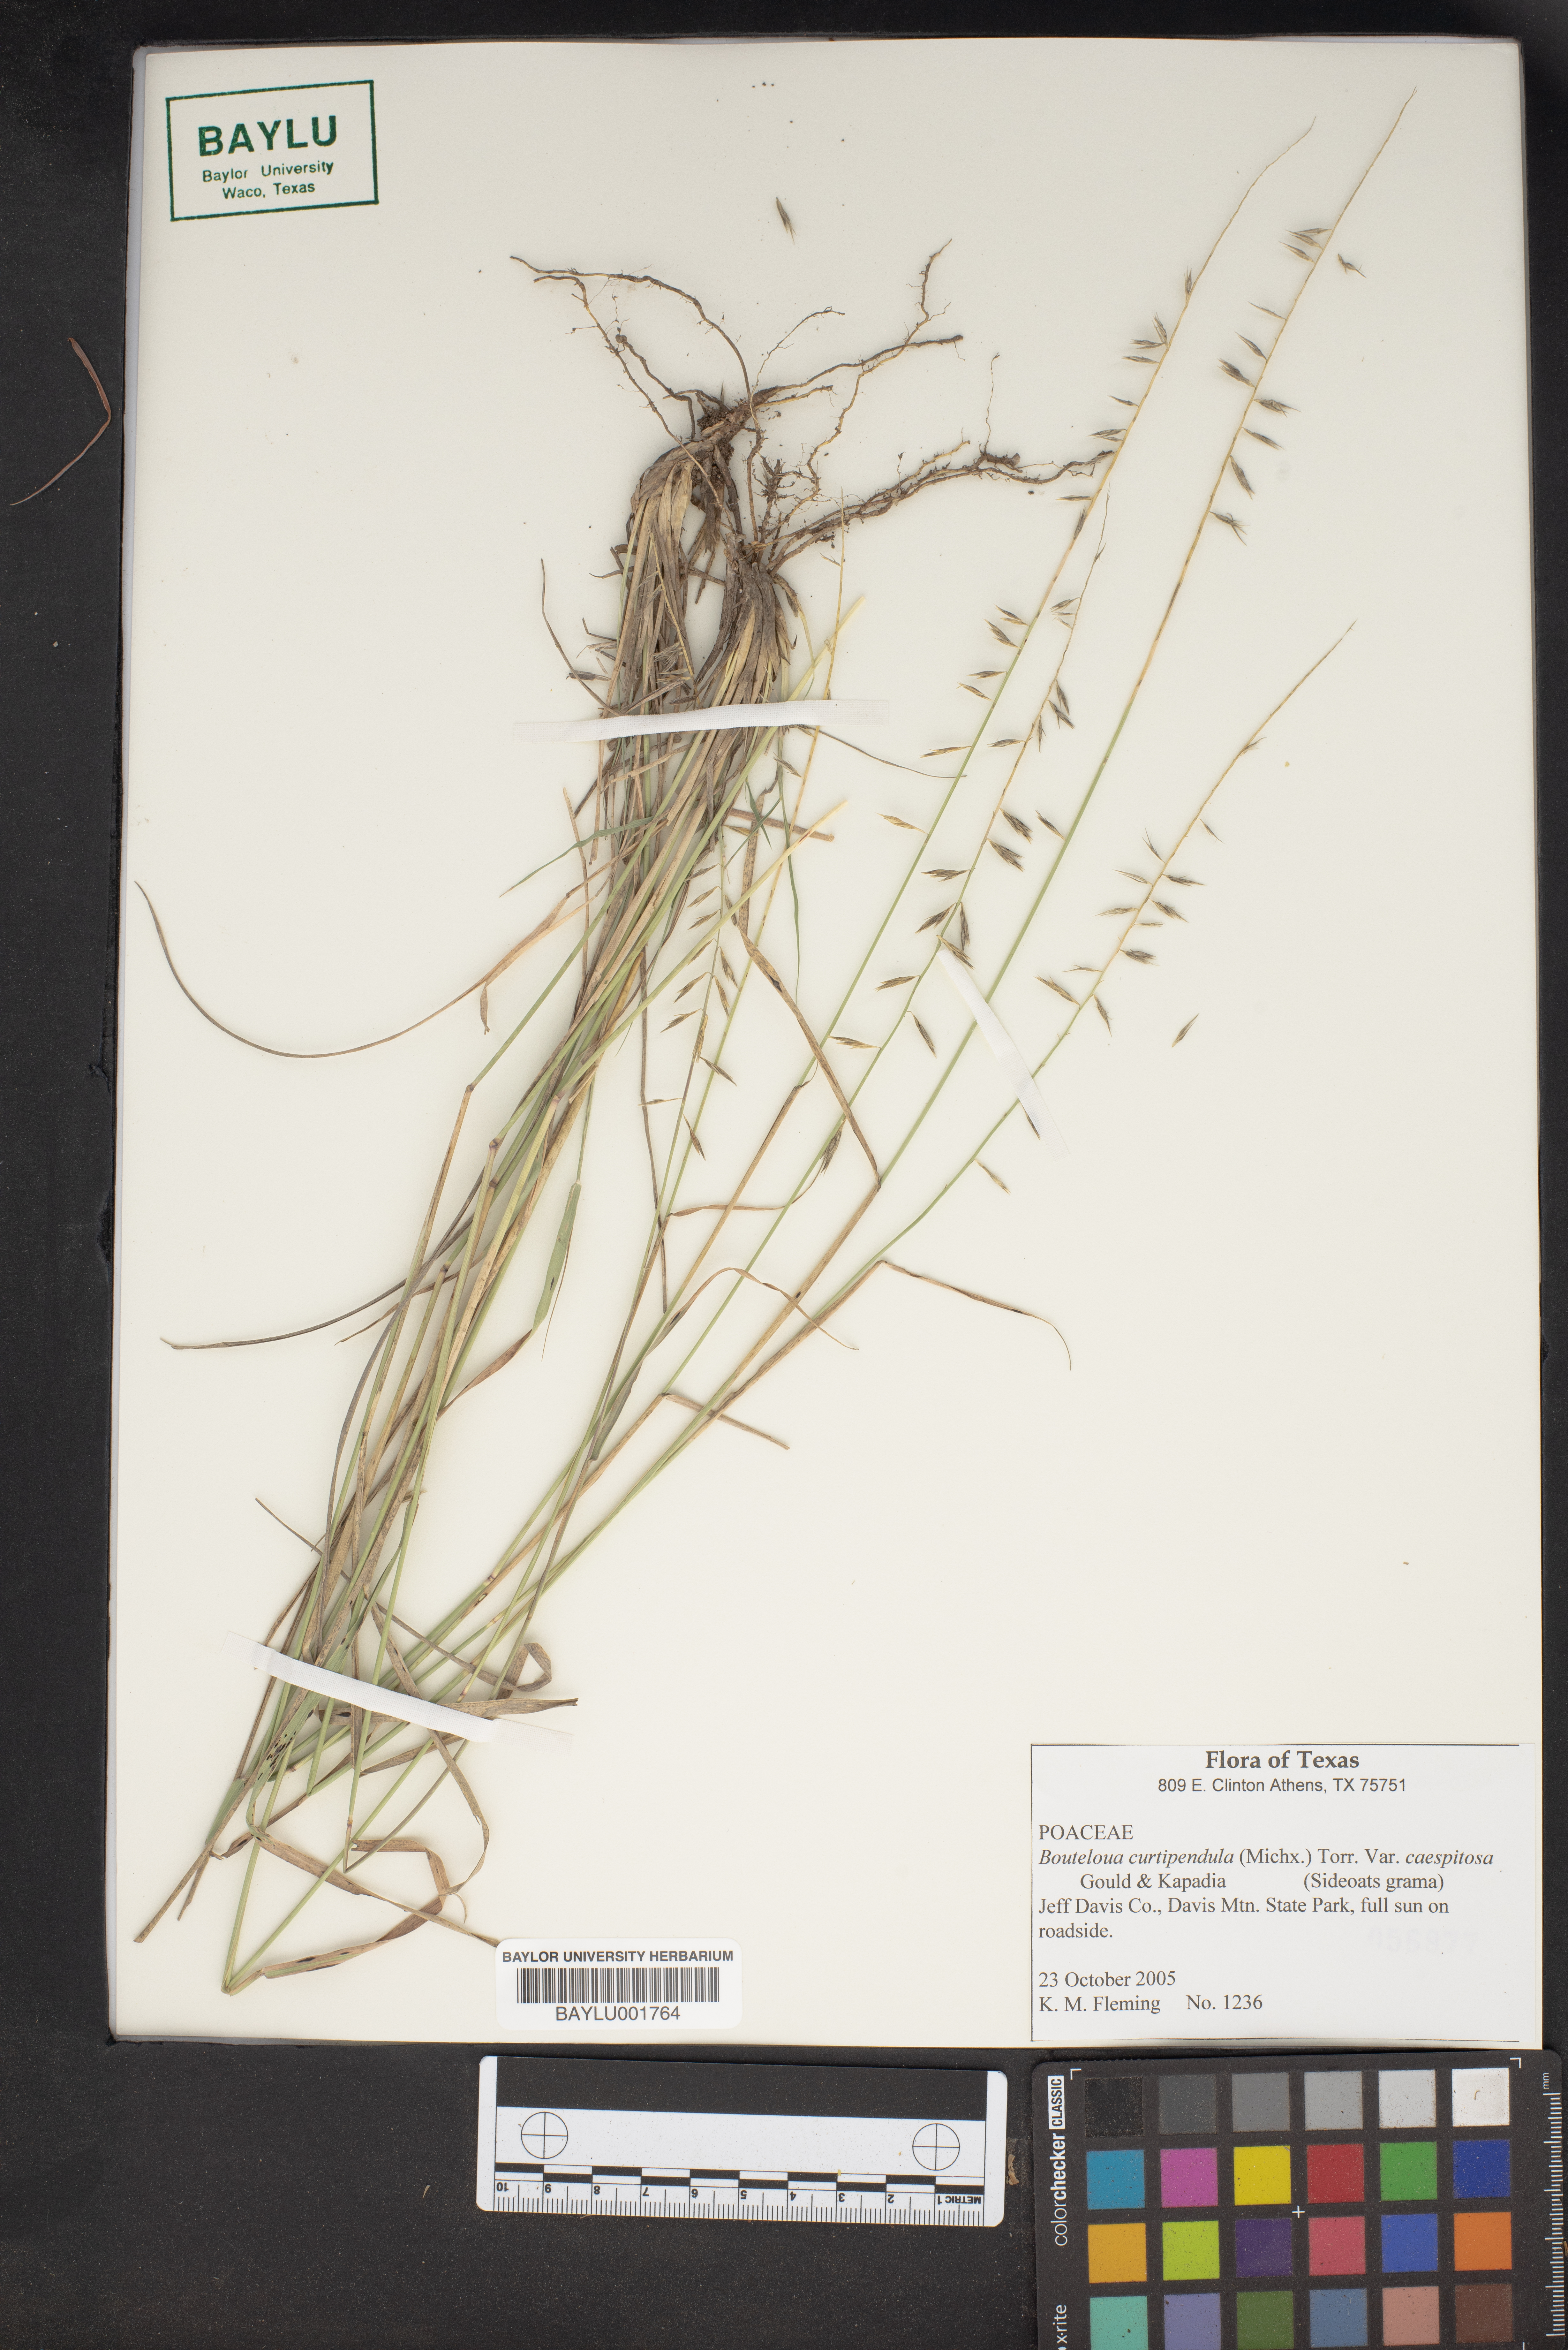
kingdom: Plantae
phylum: Tracheophyta
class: Liliopsida
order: Poales
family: Poaceae
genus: Bouteloua
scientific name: Bouteloua curtipendula
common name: Side-oats grama
